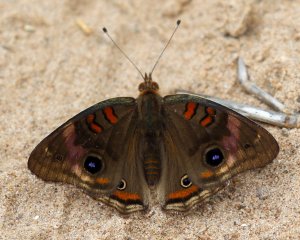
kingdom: Animalia
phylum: Arthropoda
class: Insecta
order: Lepidoptera
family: Nymphalidae
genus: Junonia
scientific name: Junonia lavinia
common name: Tropical Buckeye
